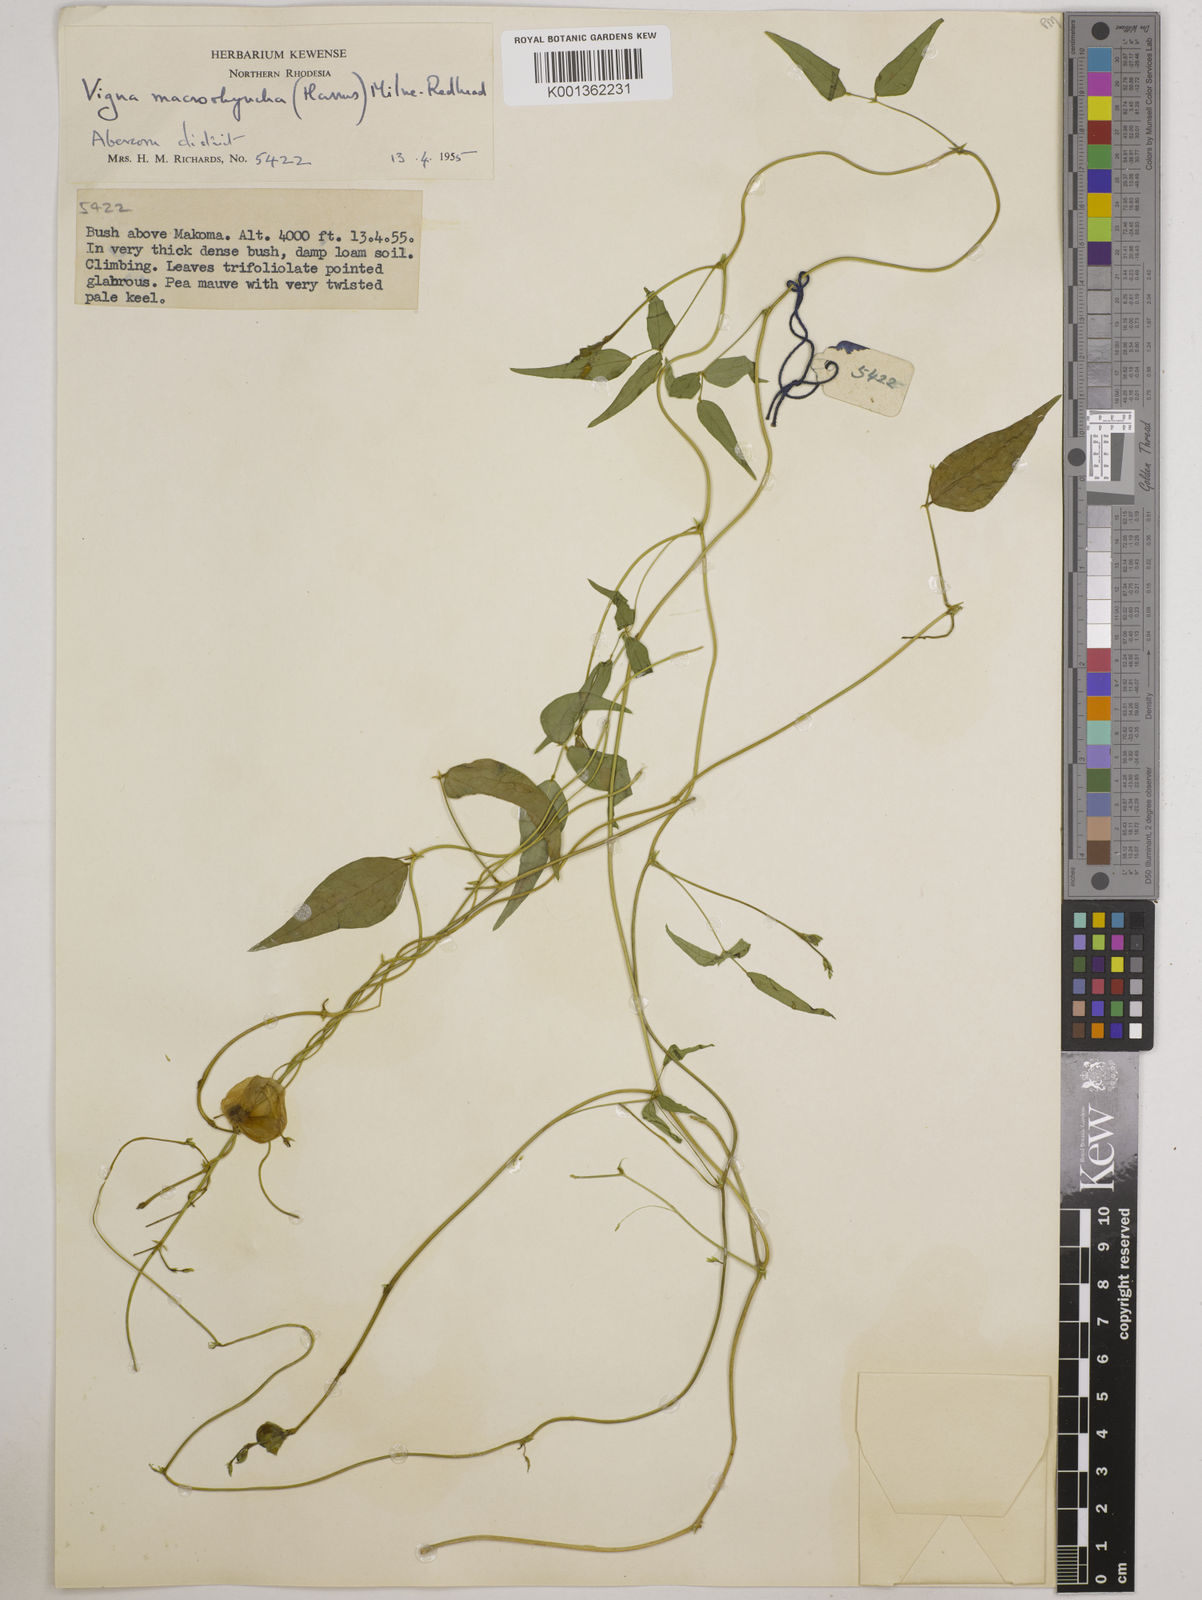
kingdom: Plantae
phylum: Tracheophyta
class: Magnoliopsida
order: Fabales
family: Fabaceae
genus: Wajira
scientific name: Wajira grahamiana
